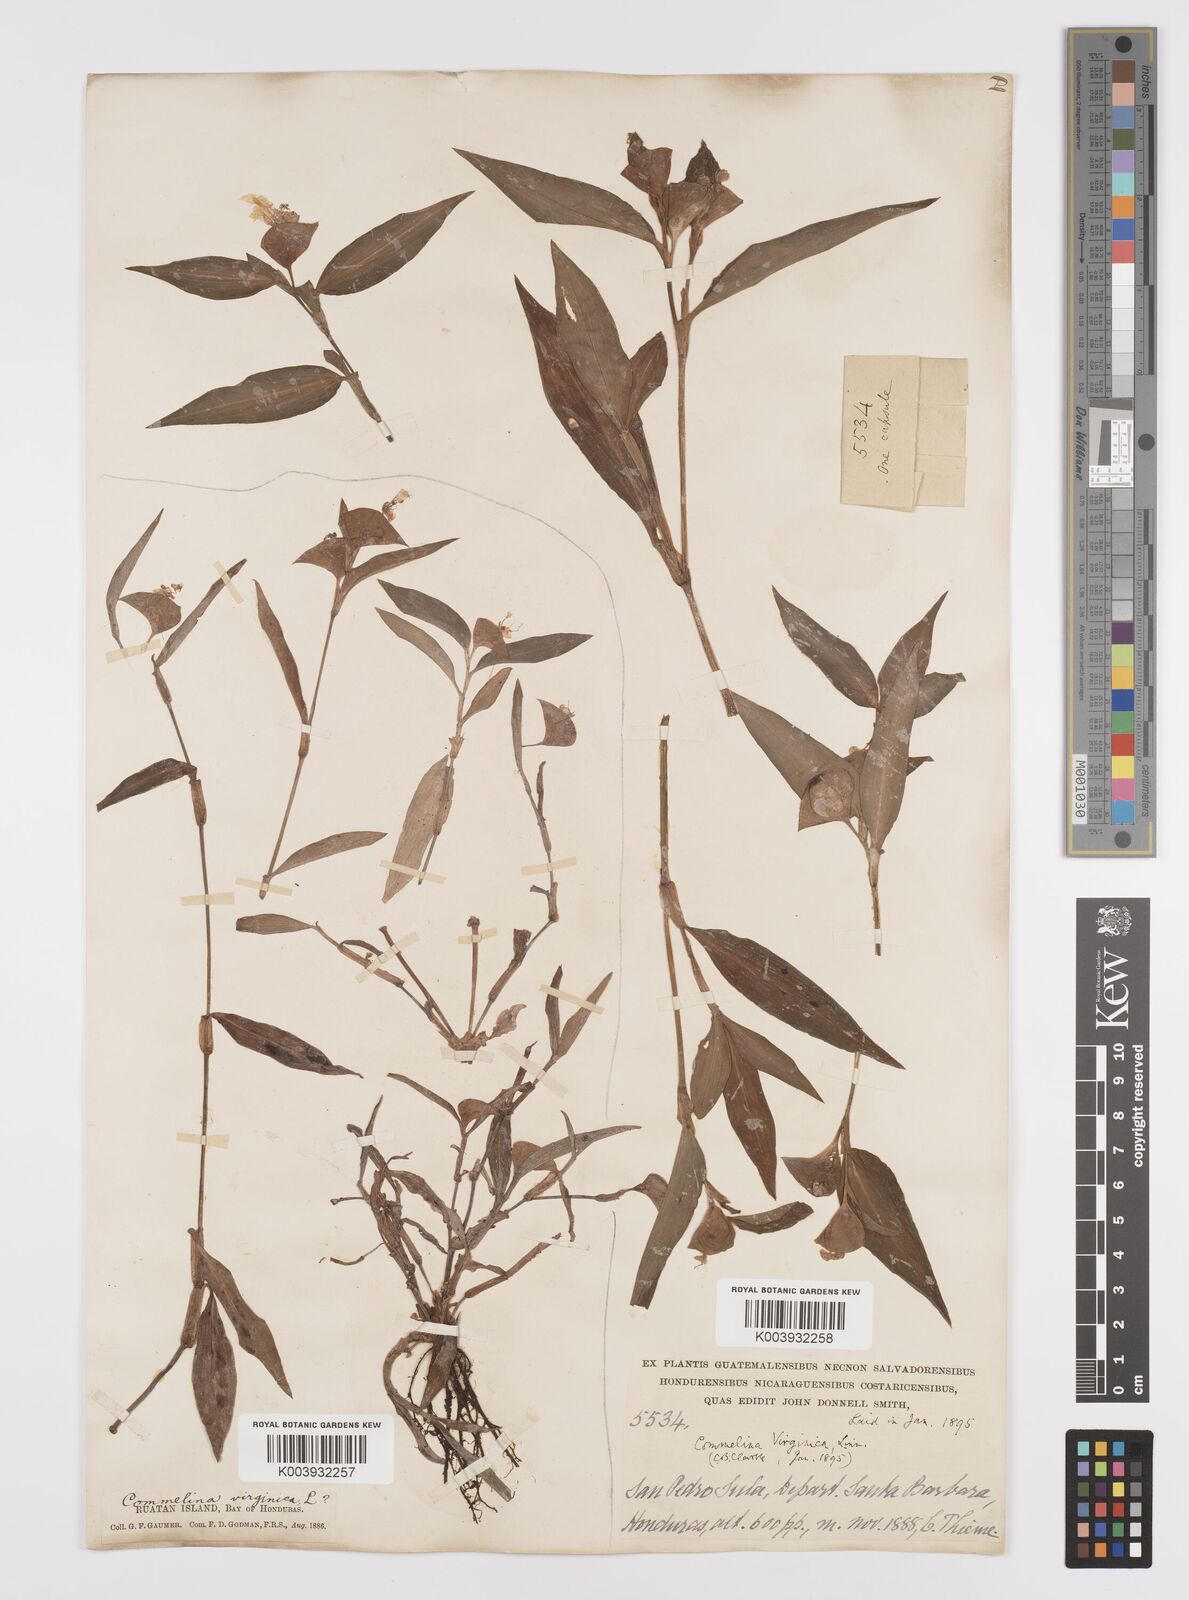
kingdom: Plantae
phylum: Tracheophyta
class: Liliopsida
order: Commelinales
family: Commelinaceae
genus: Commelina
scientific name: Commelina erecta
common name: Blousel blommetjie
